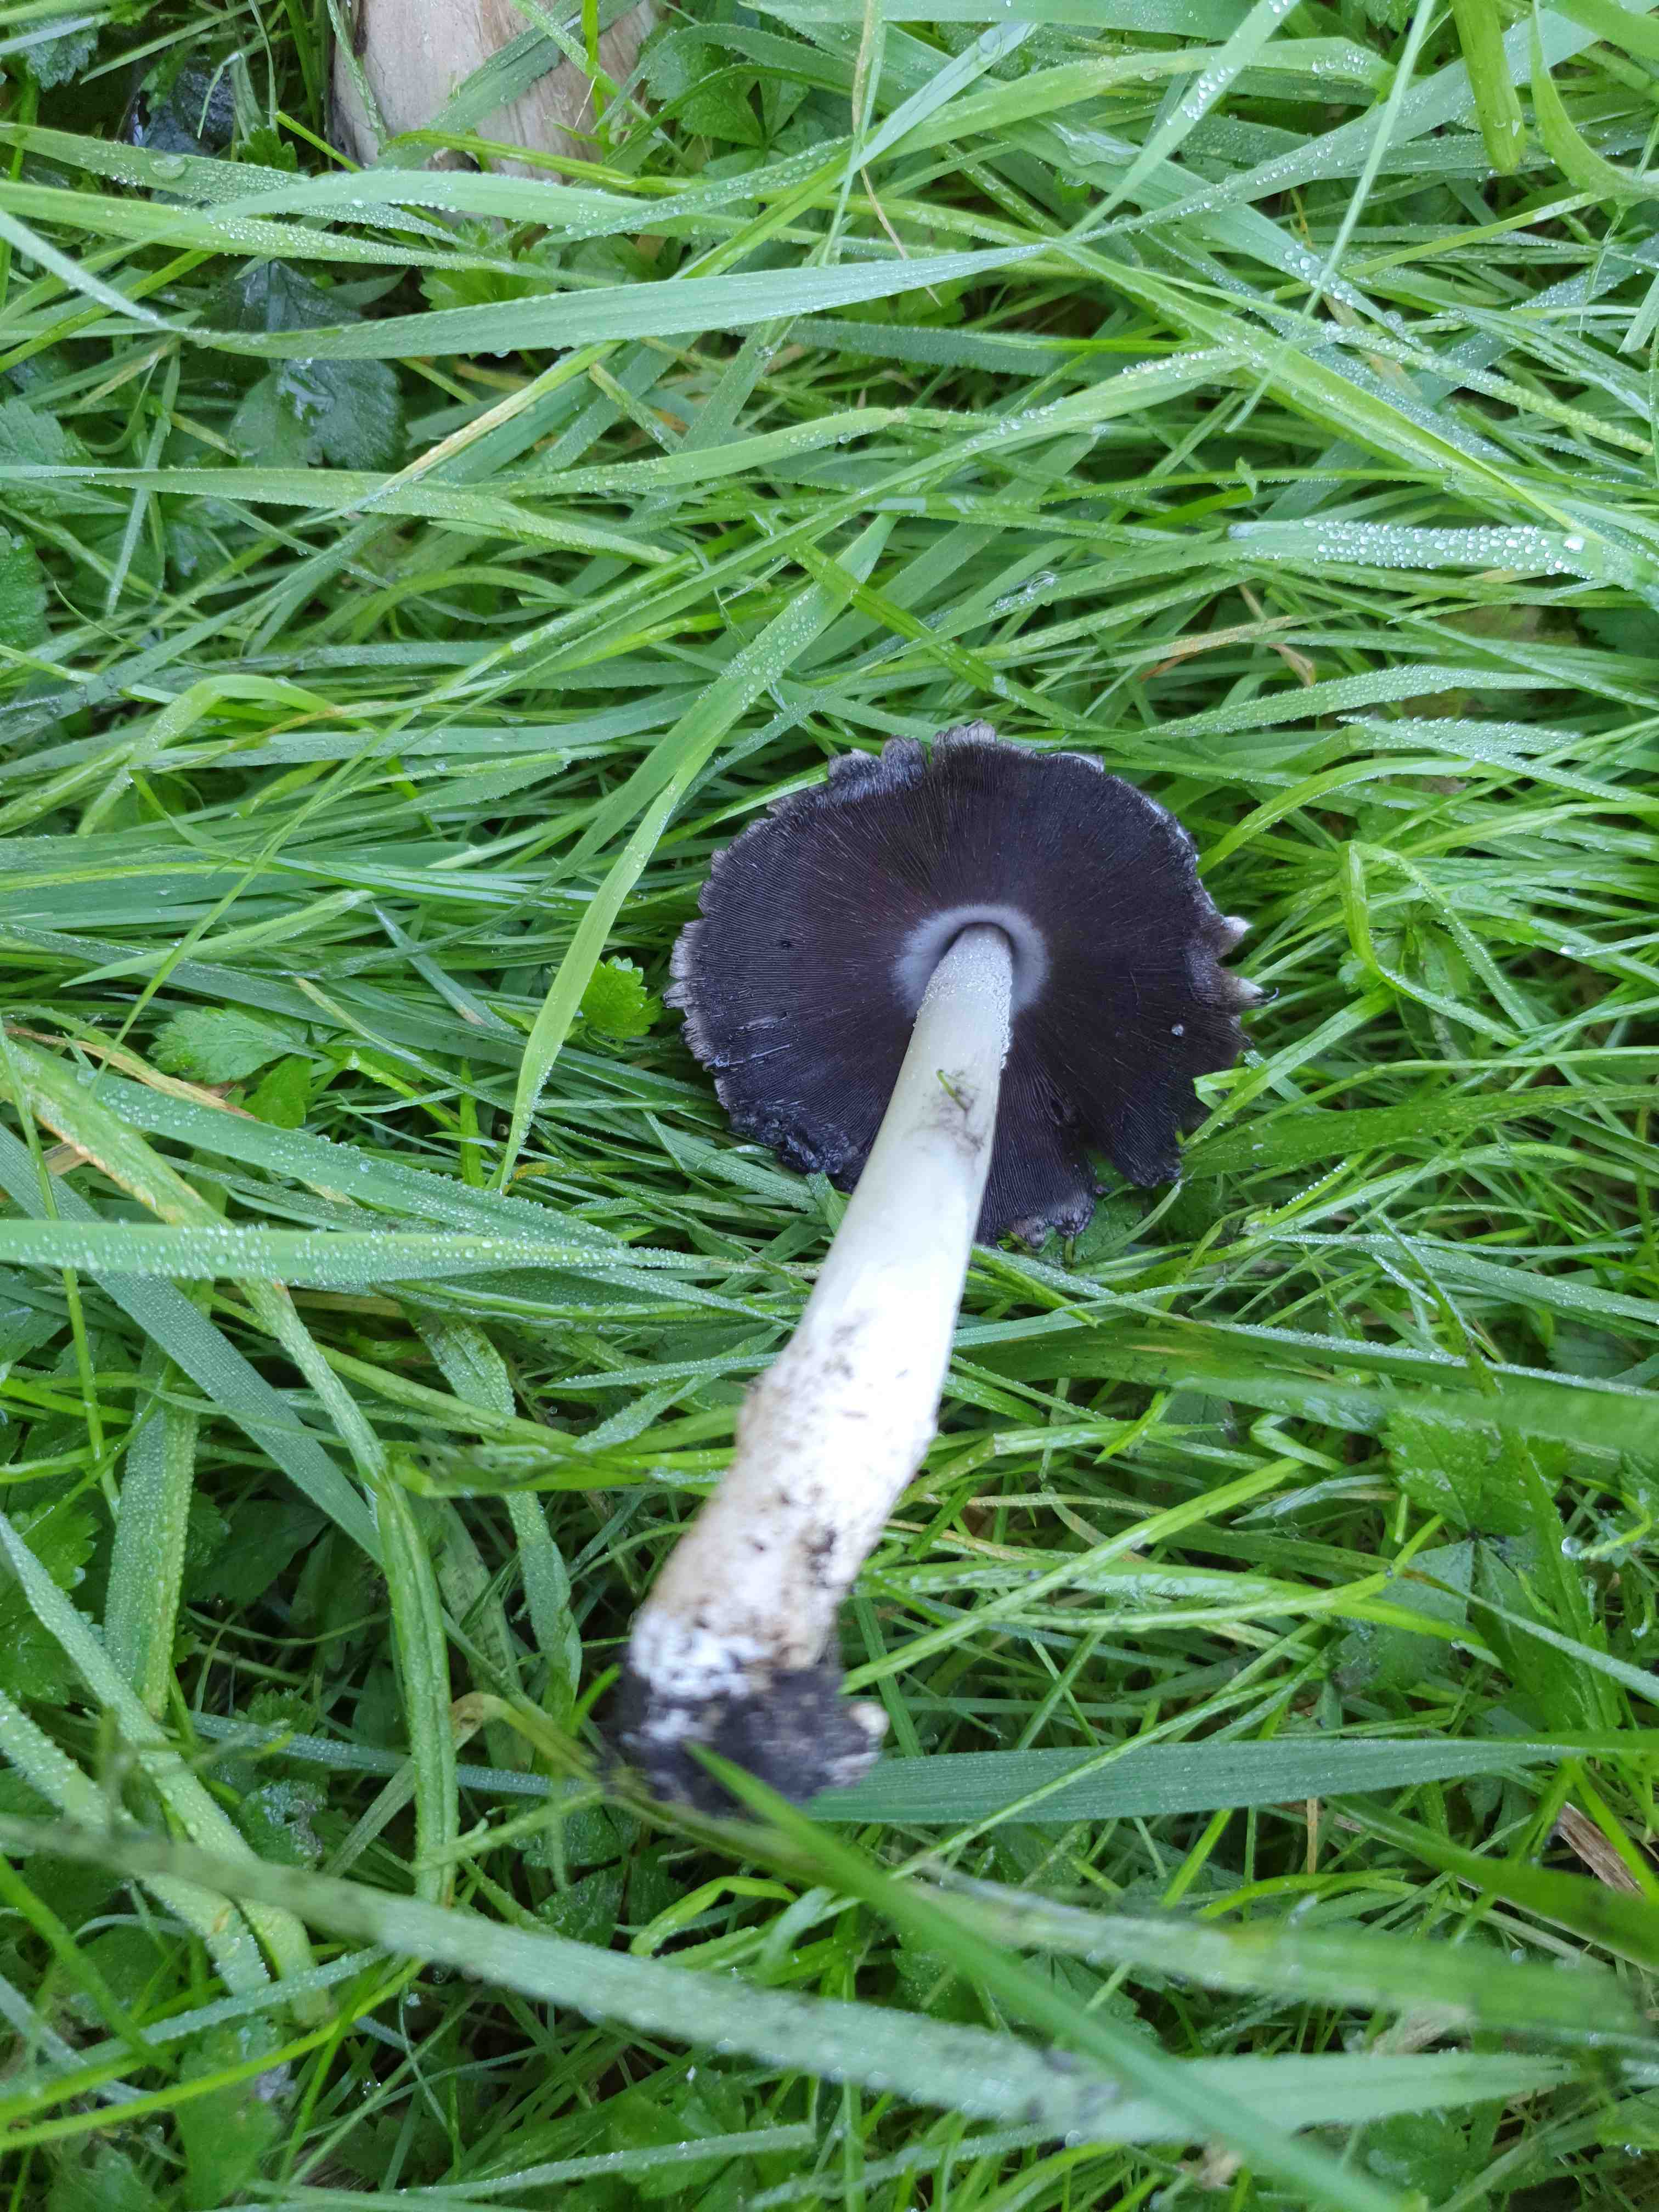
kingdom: Fungi
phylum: Basidiomycota
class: Agaricomycetes
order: Agaricales
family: Psathyrellaceae
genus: Coprinopsis
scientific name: Coprinopsis atramentaria
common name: almindelig blækhat
